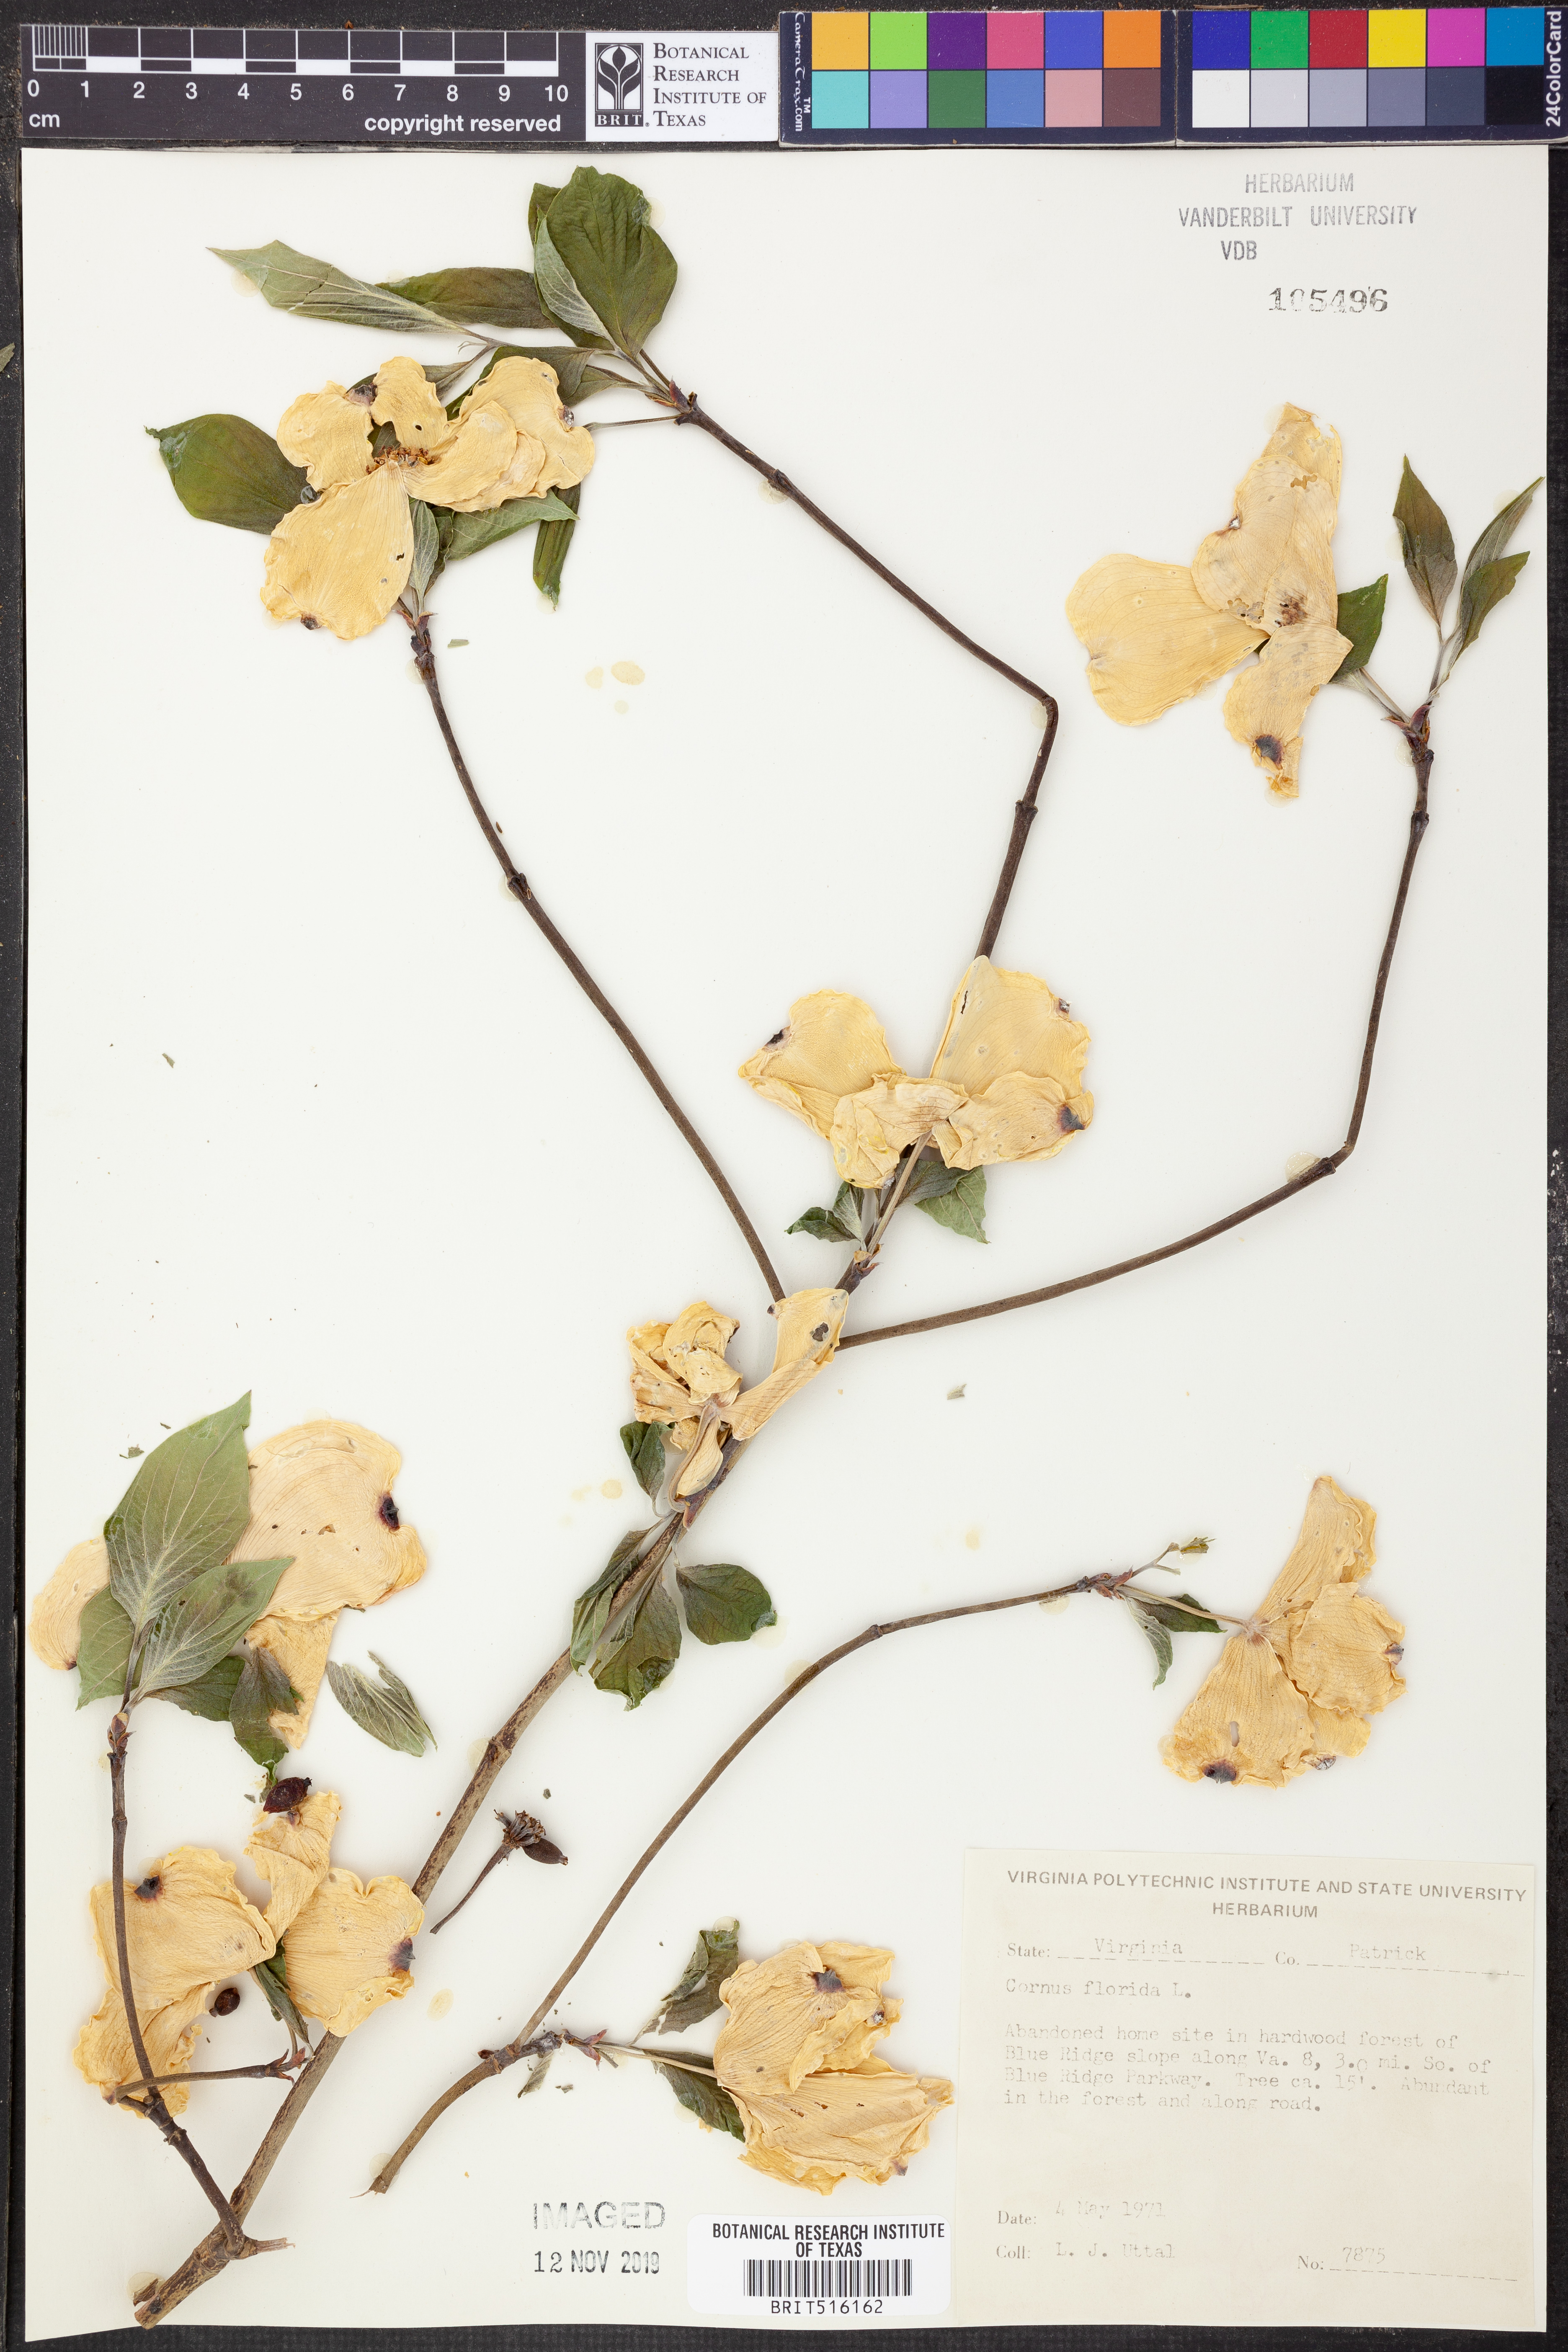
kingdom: Plantae
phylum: Tracheophyta
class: Magnoliopsida
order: Cornales
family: Cornaceae
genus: Cornus
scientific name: Cornus florida
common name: Flowering dogwood
